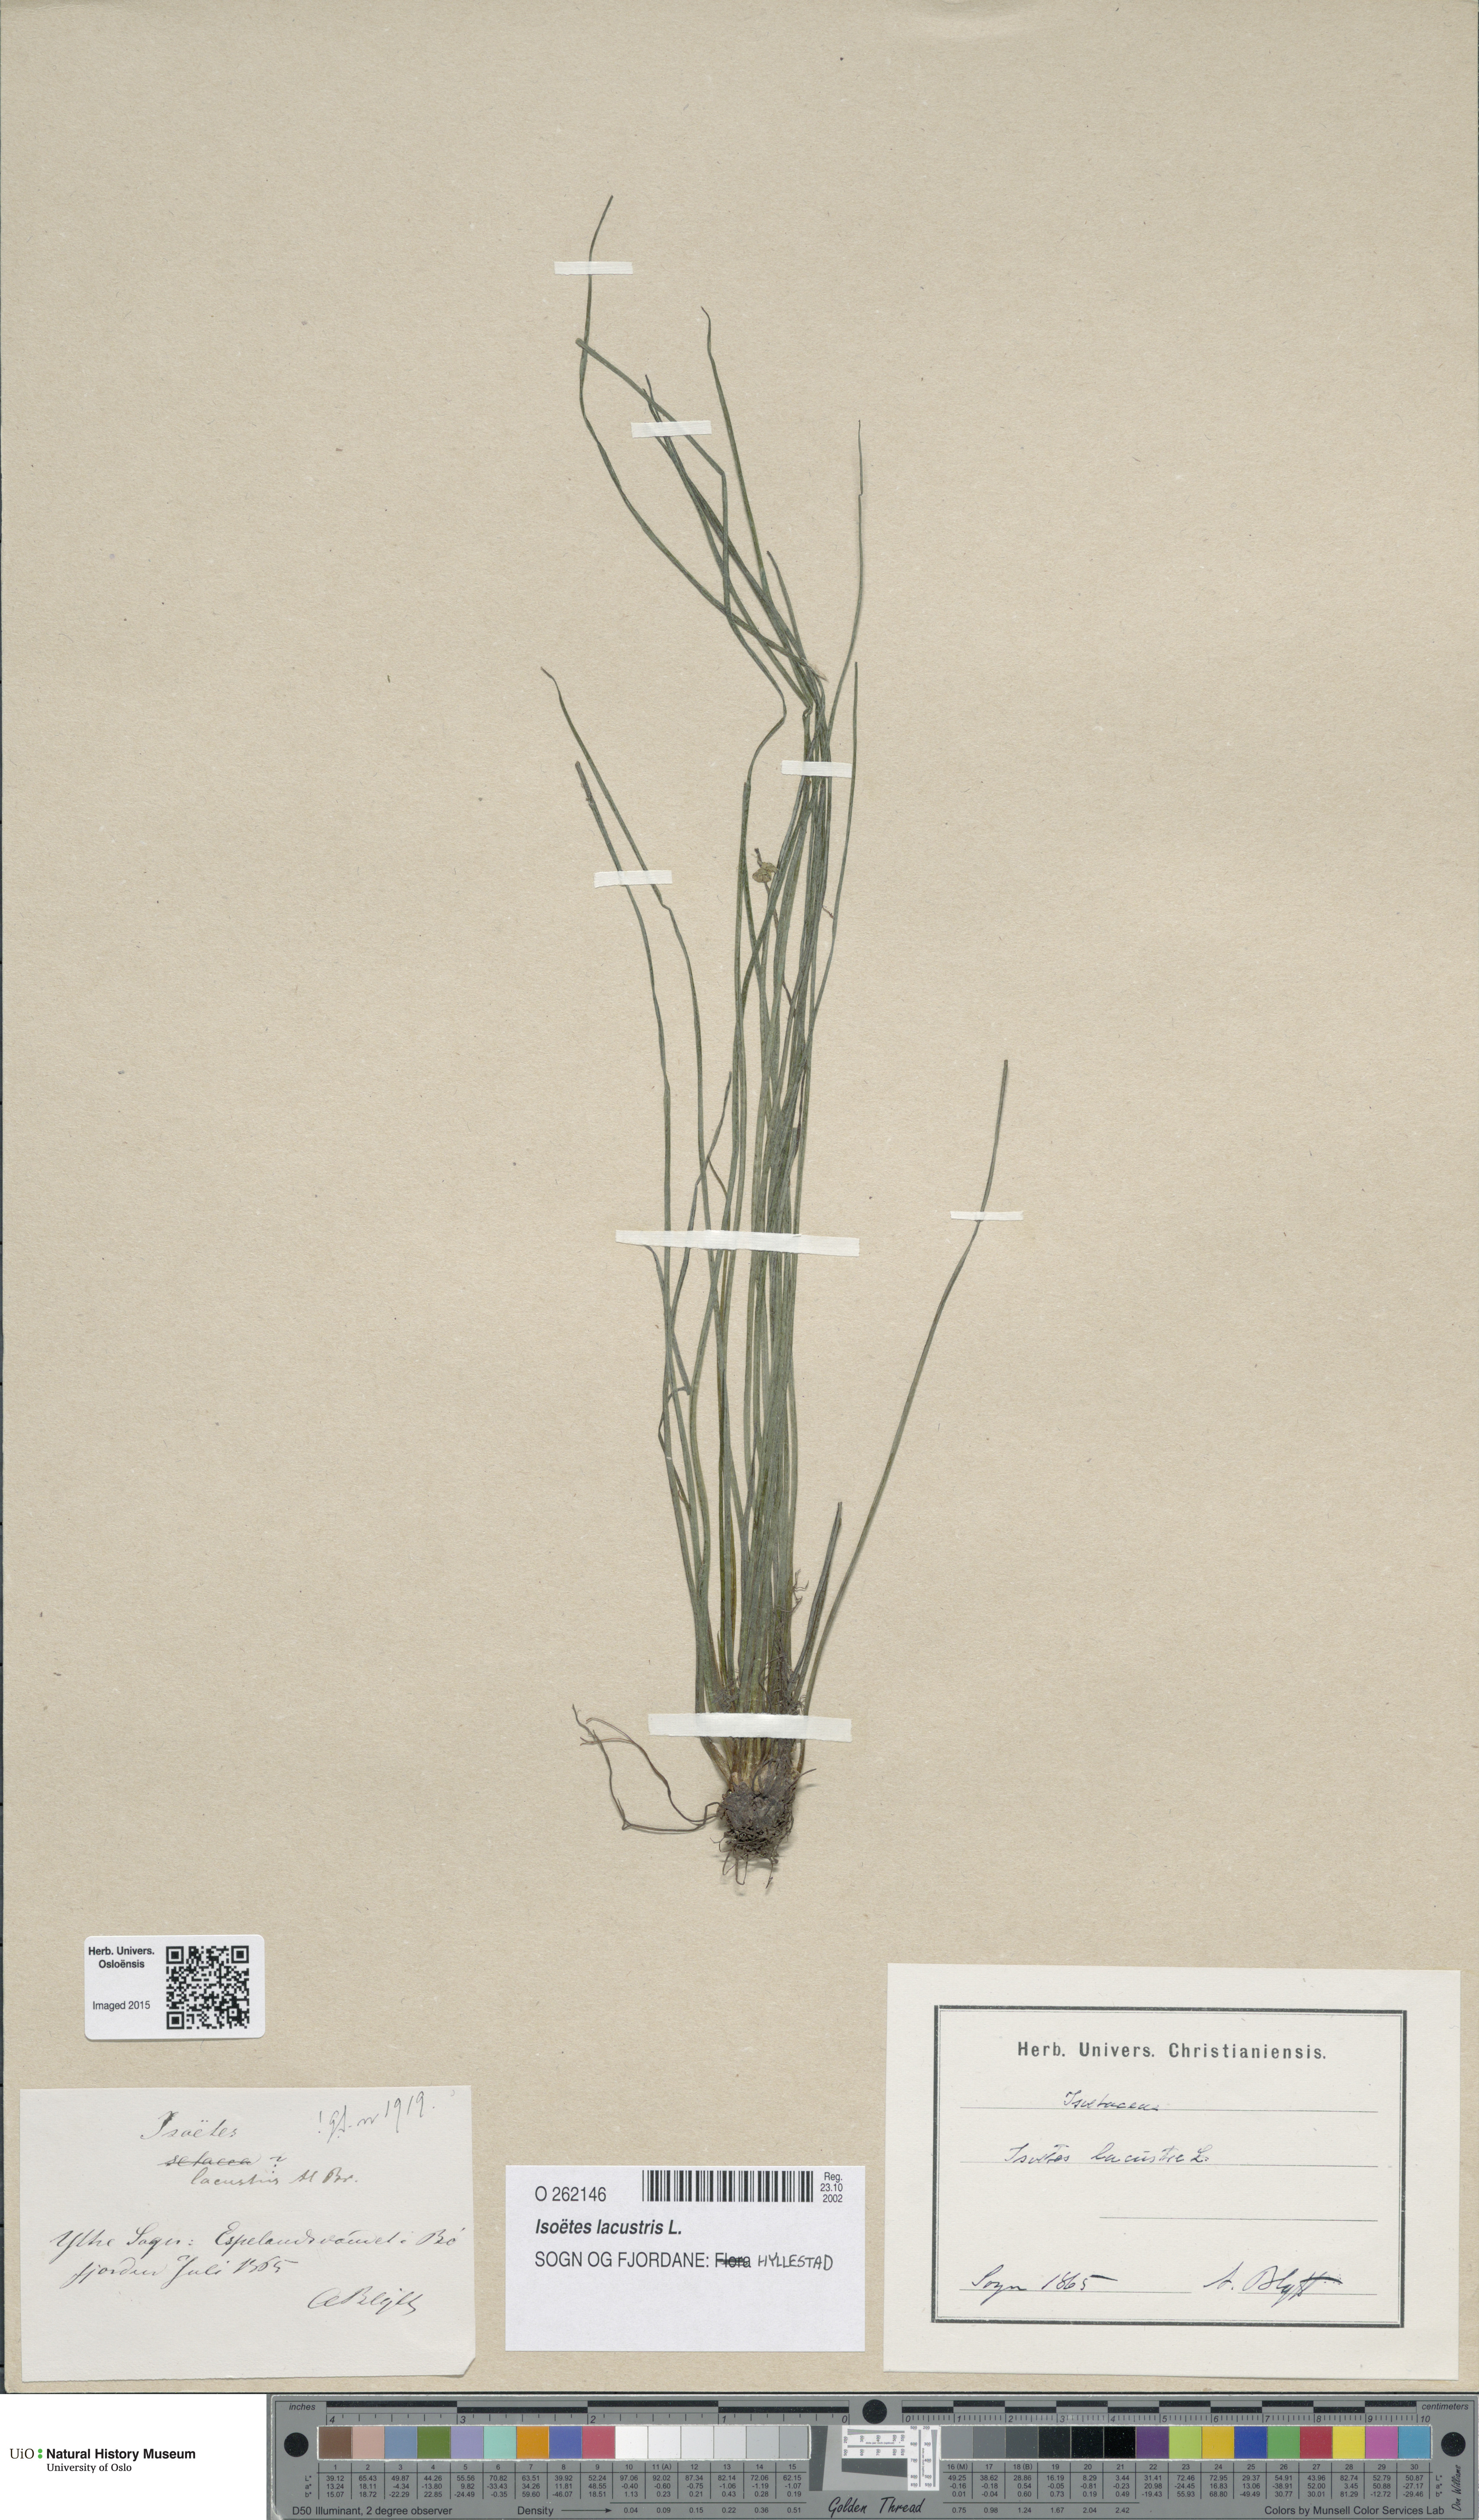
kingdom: Plantae
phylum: Tracheophyta
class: Lycopodiopsida
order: Isoetales
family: Isoetaceae
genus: Isoetes
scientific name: Isoetes lacustris
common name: Common quillwort
